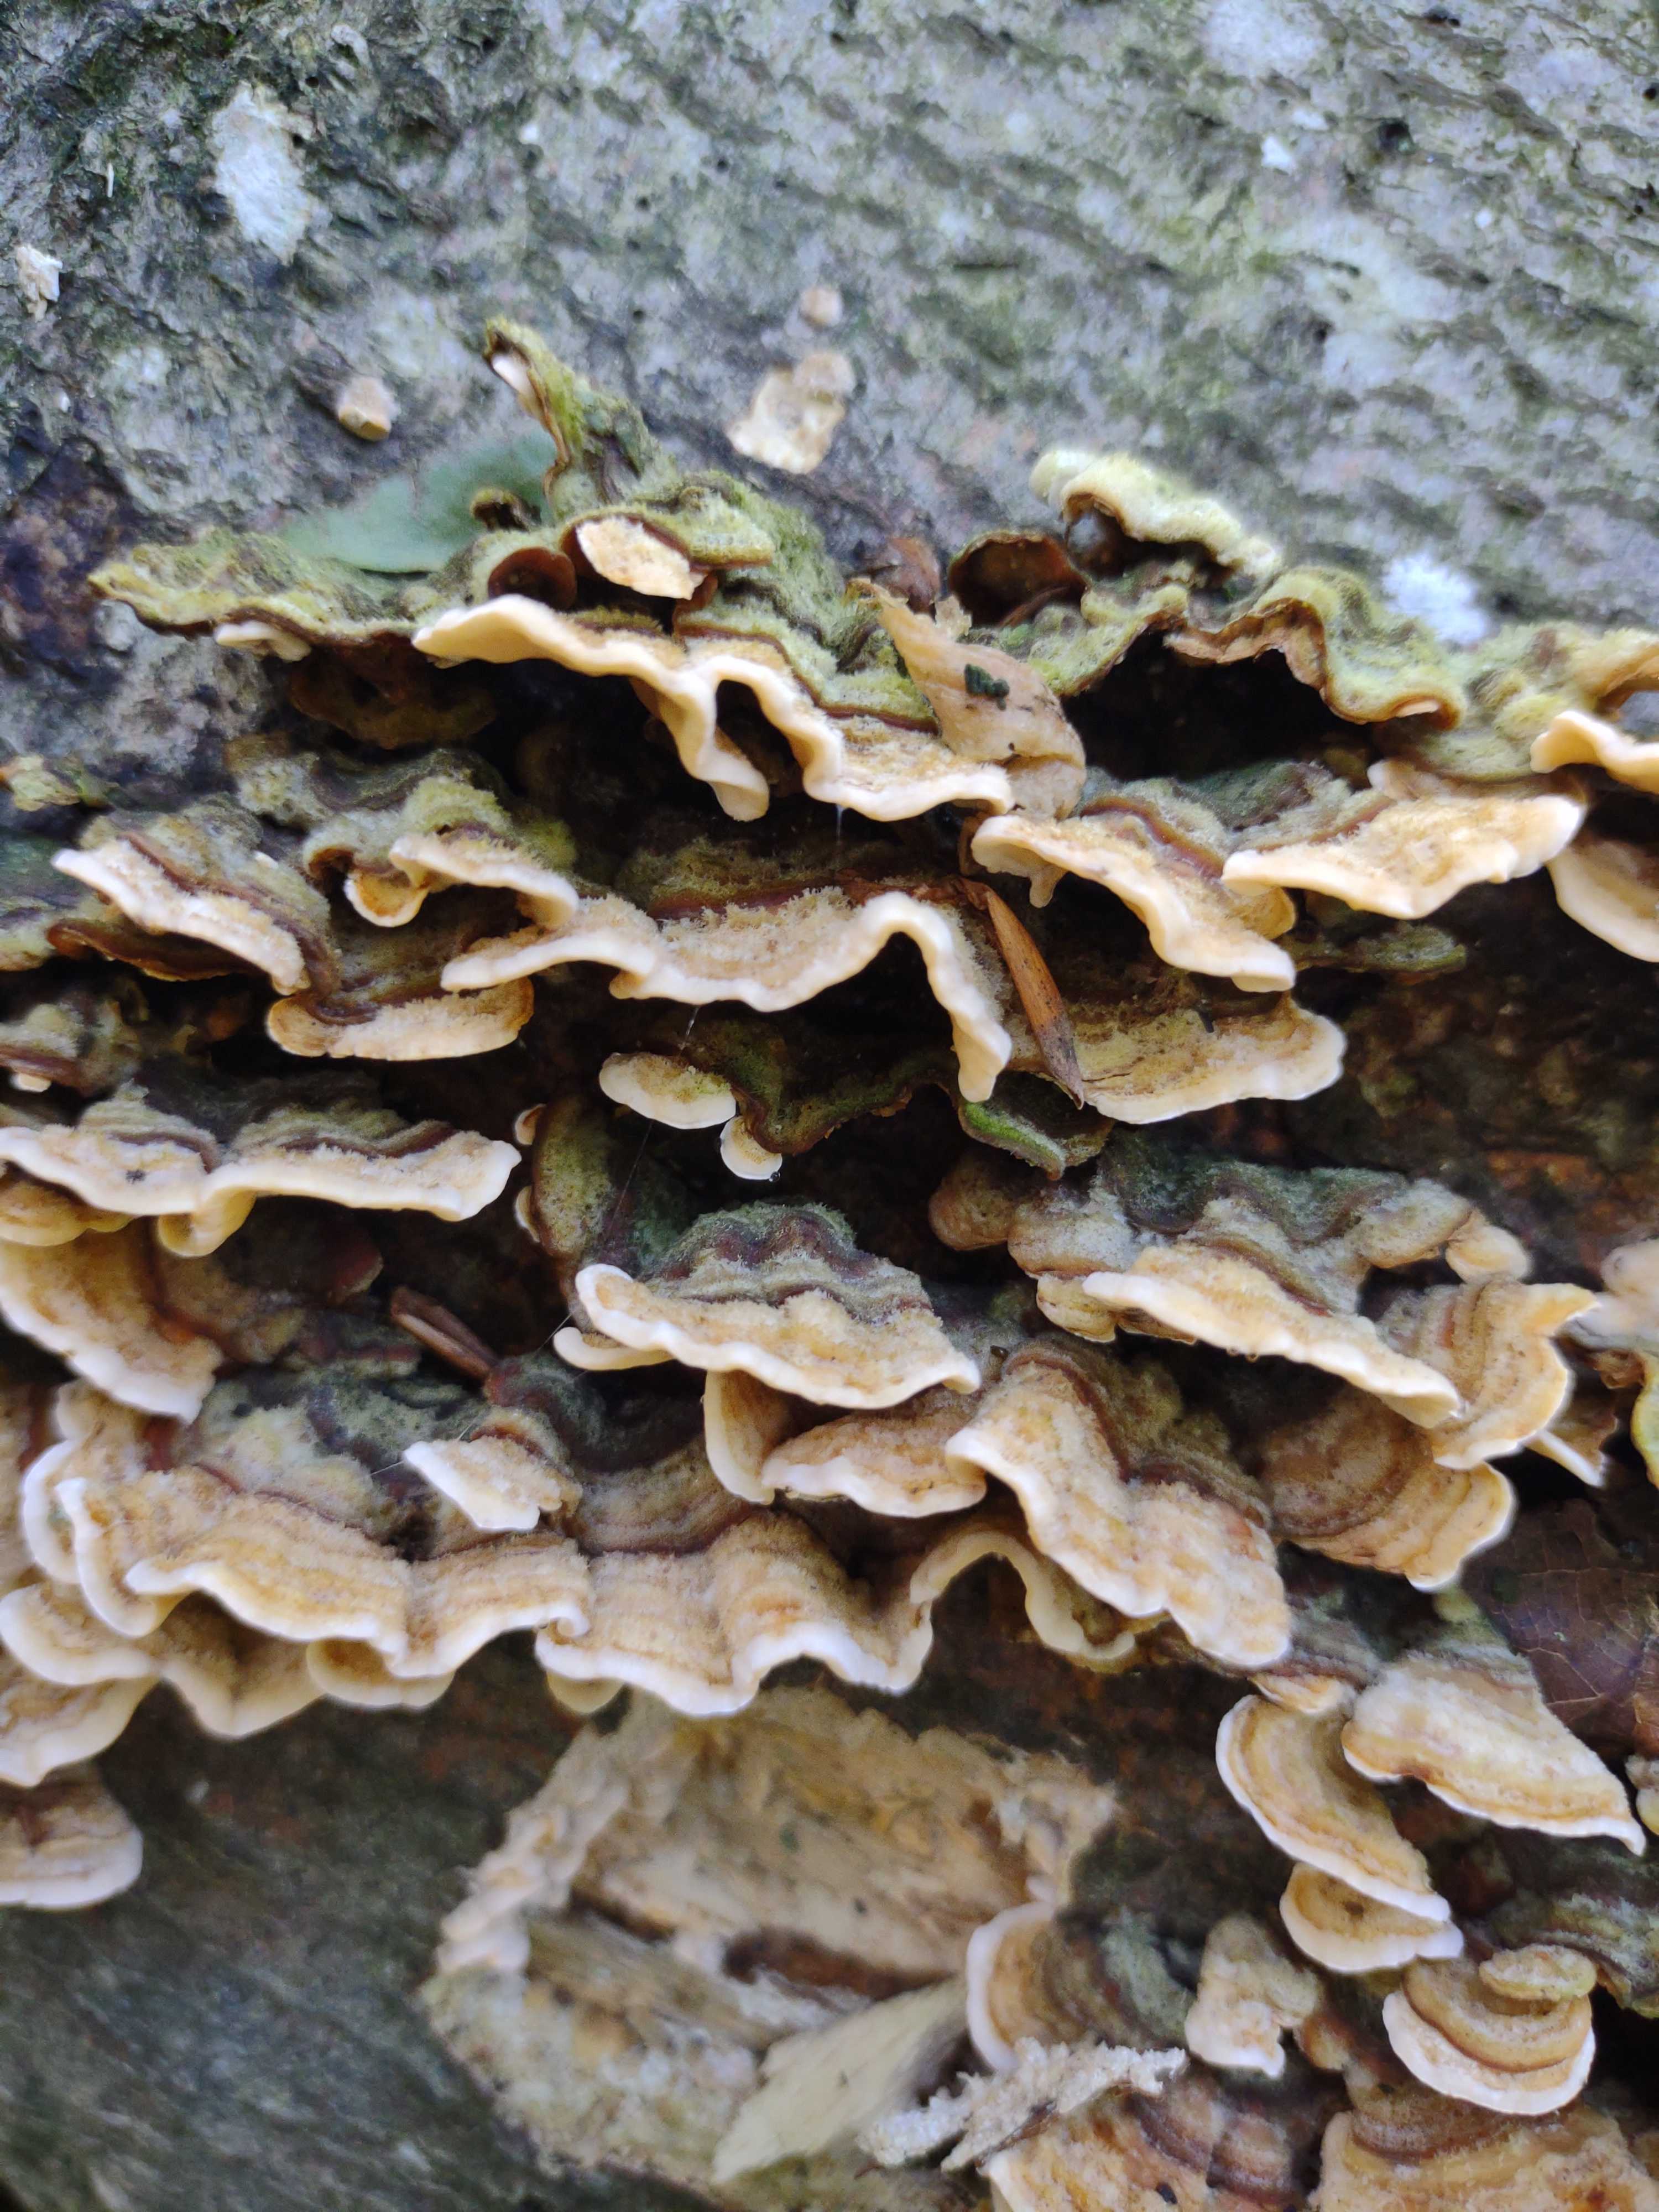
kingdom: Fungi
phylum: Basidiomycota
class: Agaricomycetes
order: Russulales
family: Stereaceae
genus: Stereum
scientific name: Stereum hirsutum
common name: håret lædersvamp
